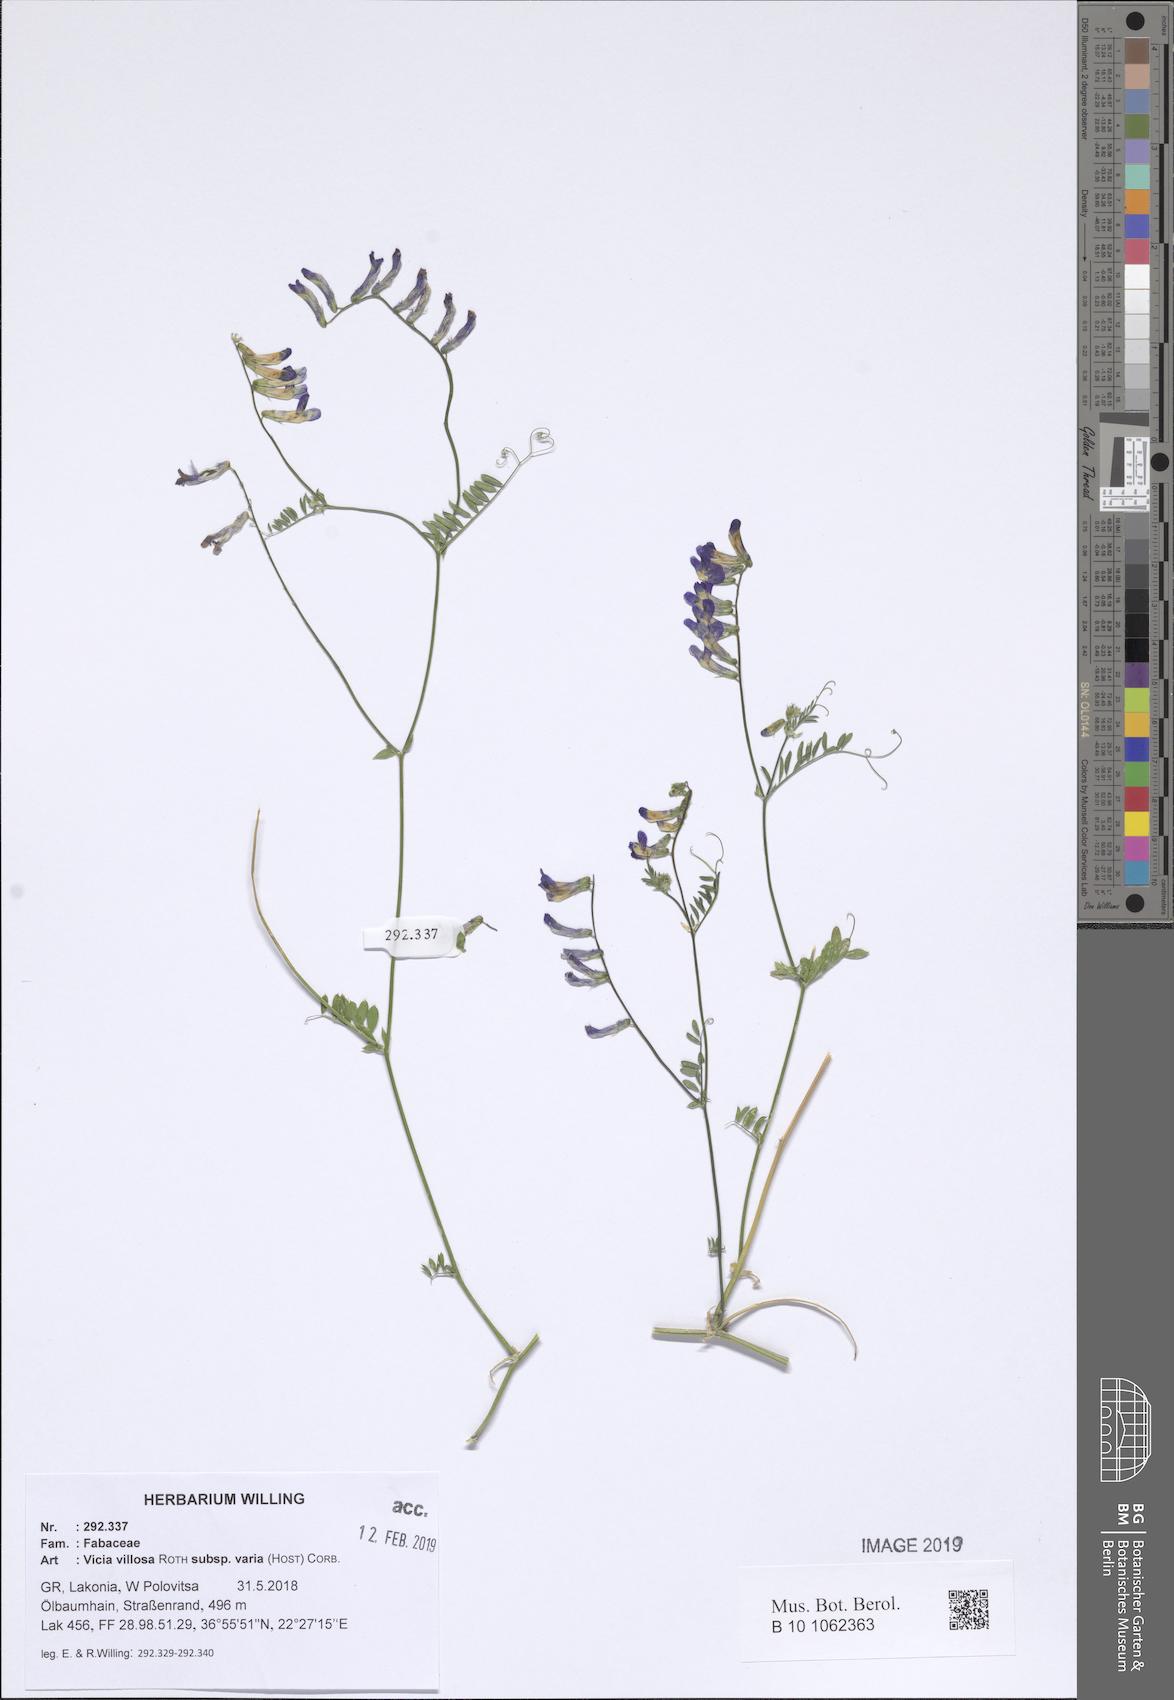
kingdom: Plantae
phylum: Tracheophyta
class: Magnoliopsida
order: Fabales
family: Fabaceae
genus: Vicia
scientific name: Vicia villosa
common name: Fodder vetch
